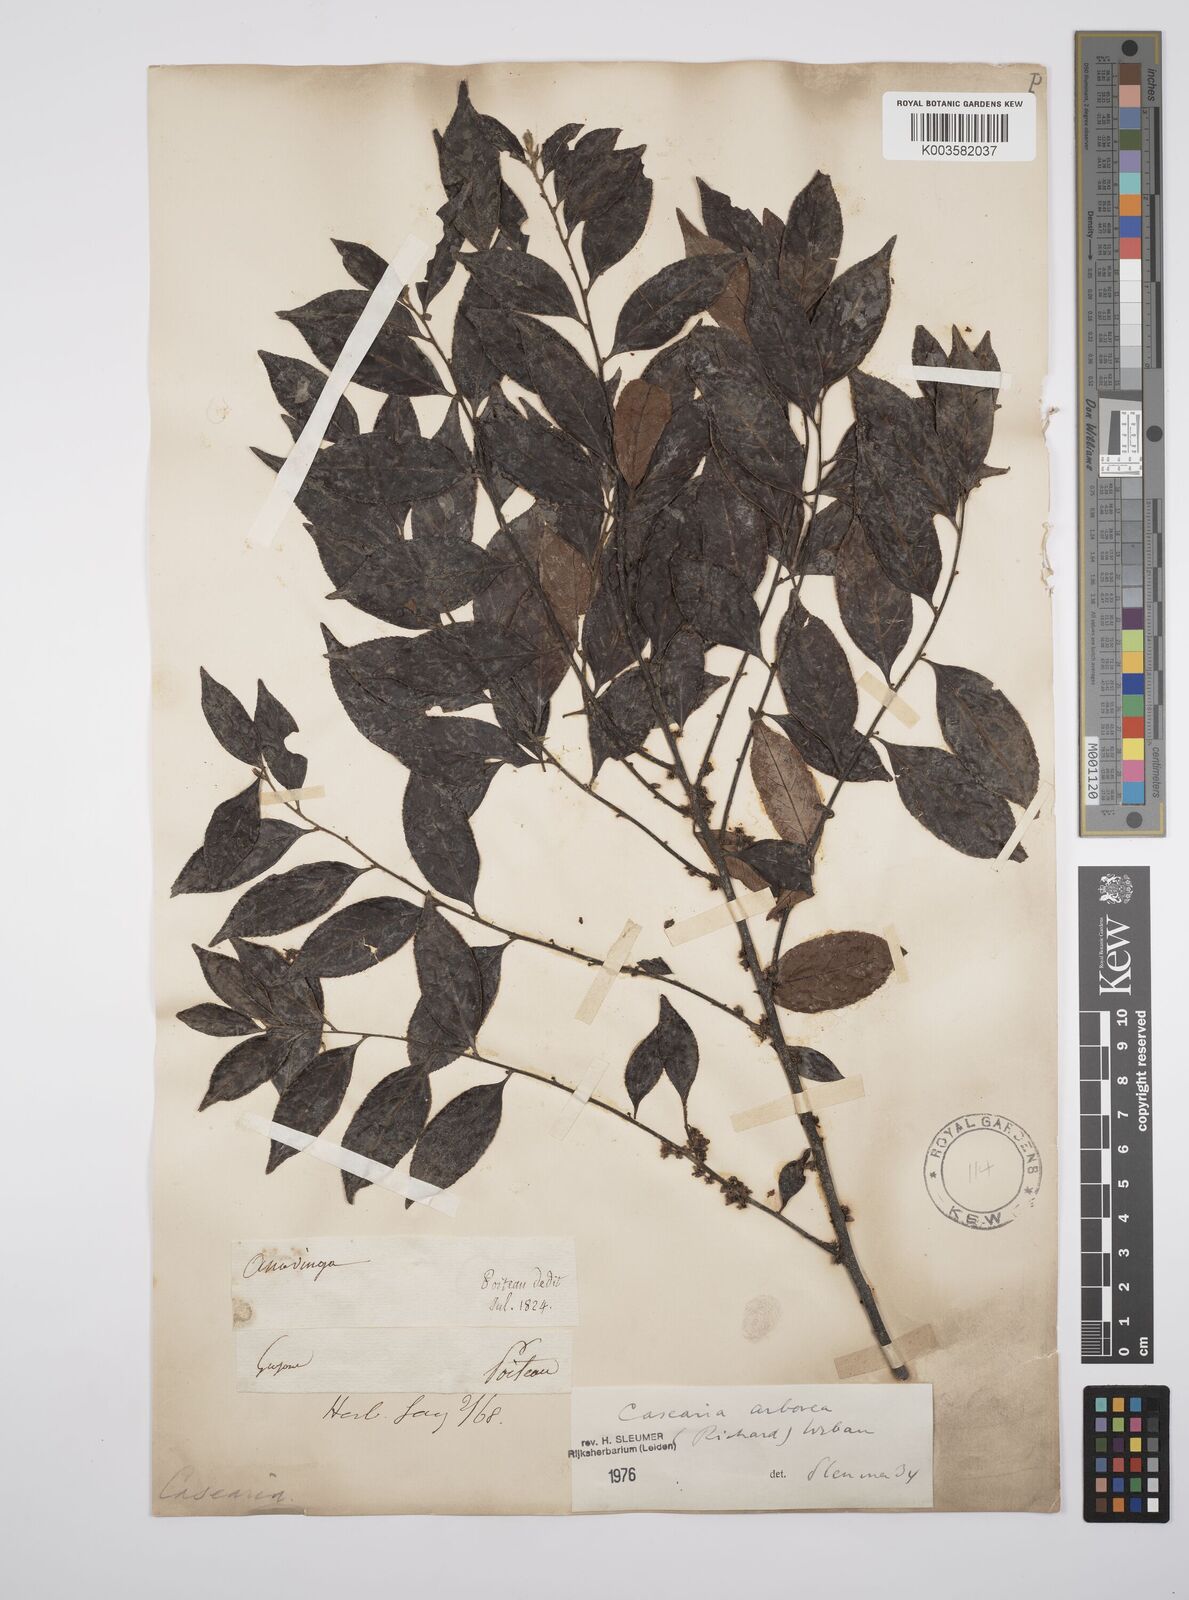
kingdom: Plantae
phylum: Tracheophyta
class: Magnoliopsida
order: Malpighiales
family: Salicaceae
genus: Casearia
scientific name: Casearia arborea
